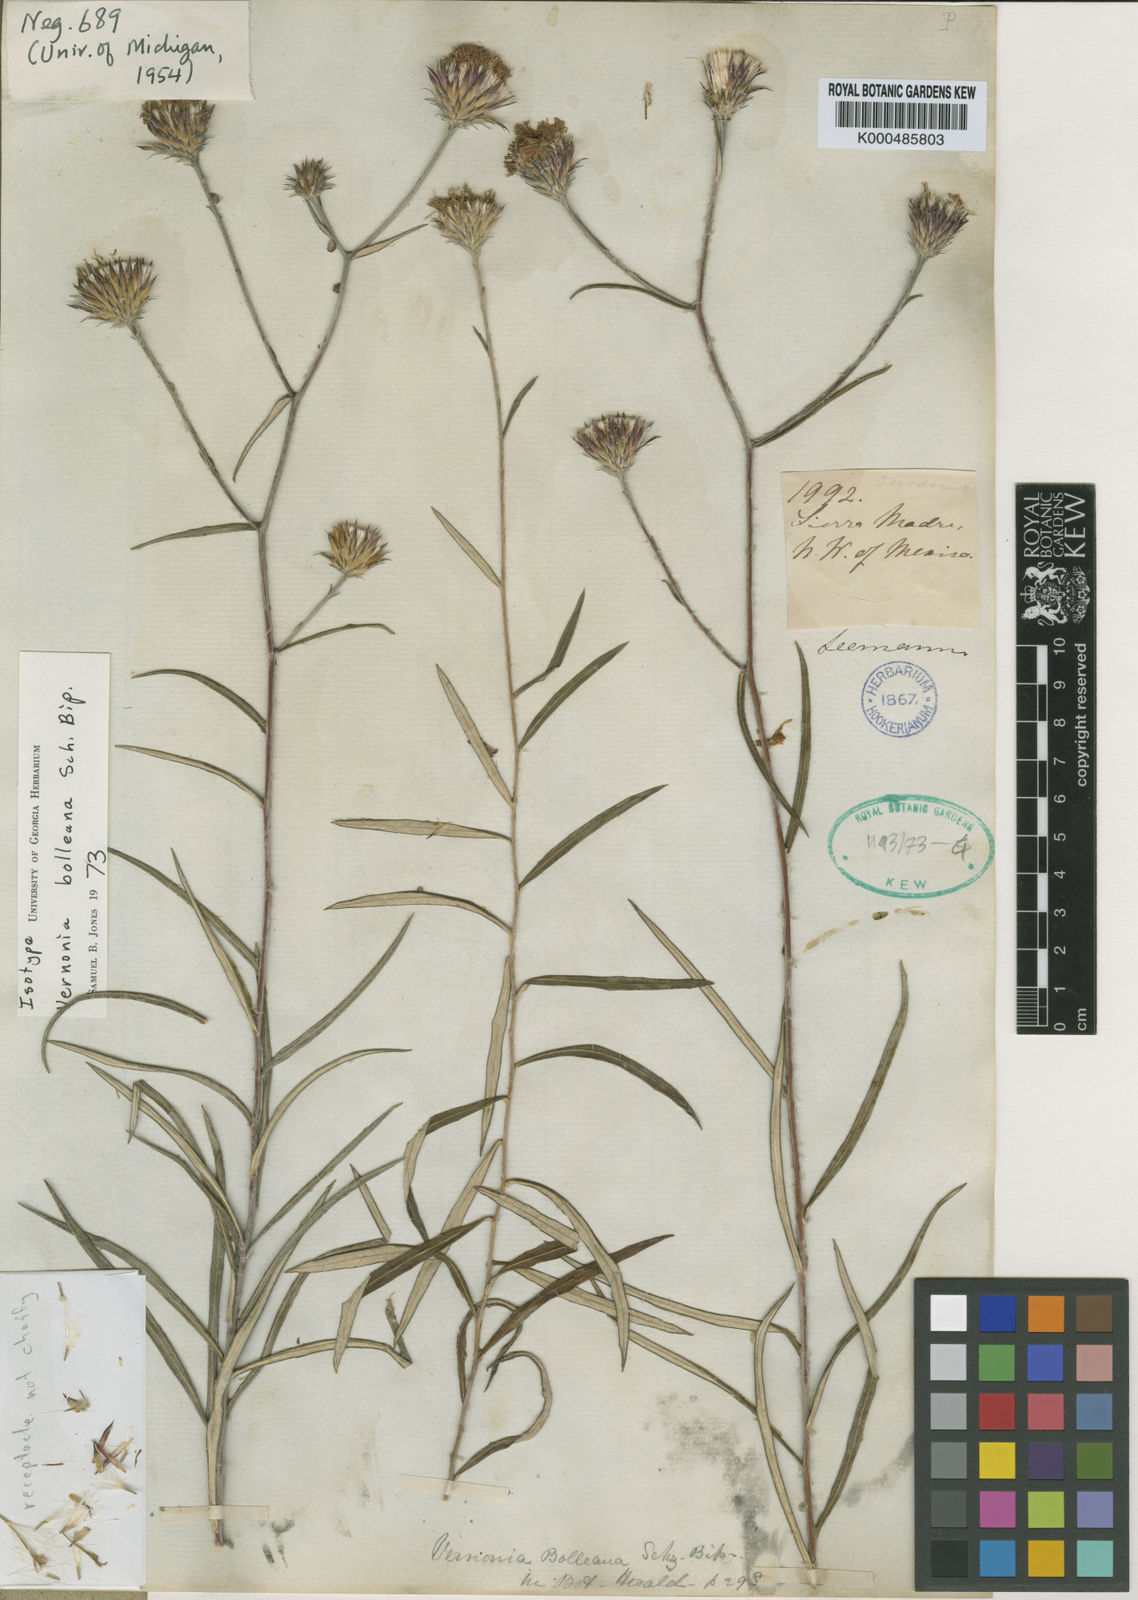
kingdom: Plantae
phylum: Tracheophyta
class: Magnoliopsida
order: Asterales
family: Asteraceae
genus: Bolanosa
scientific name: Bolanosa coulteri
